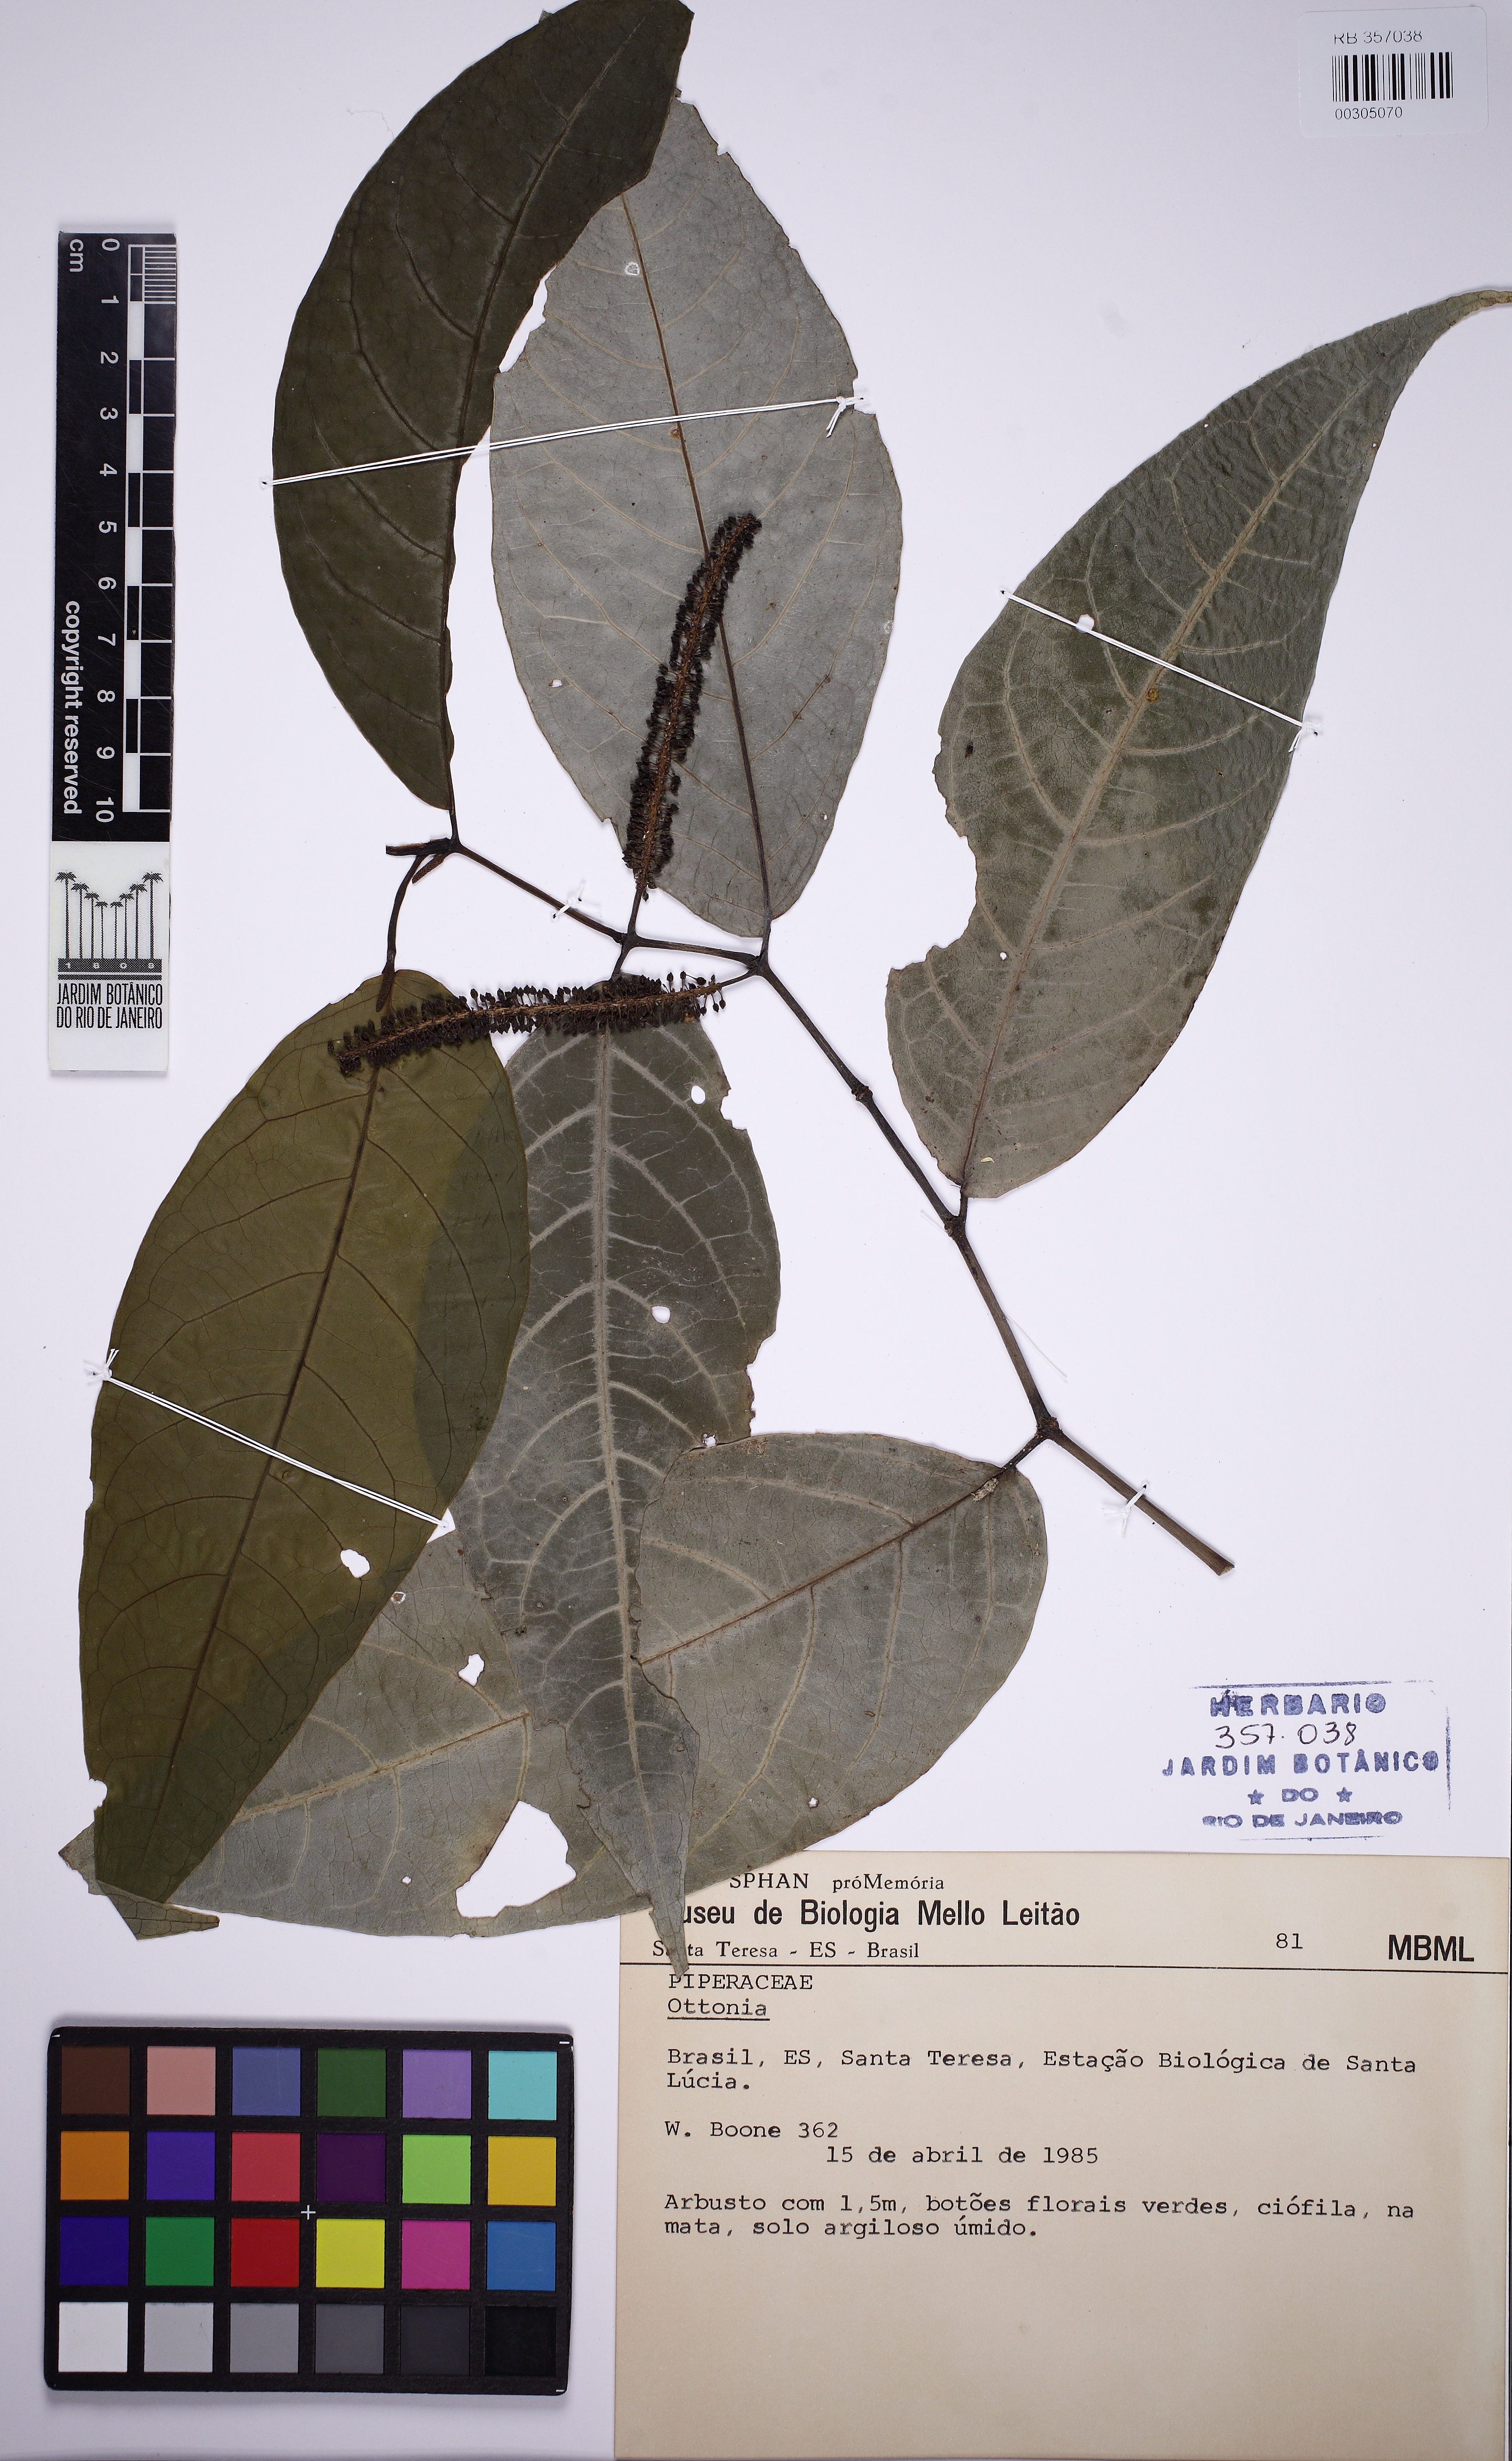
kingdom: Plantae
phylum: Tracheophyta
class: Magnoliopsida
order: Piperales
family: Piperaceae
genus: Piper
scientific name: Piper corcovadense
